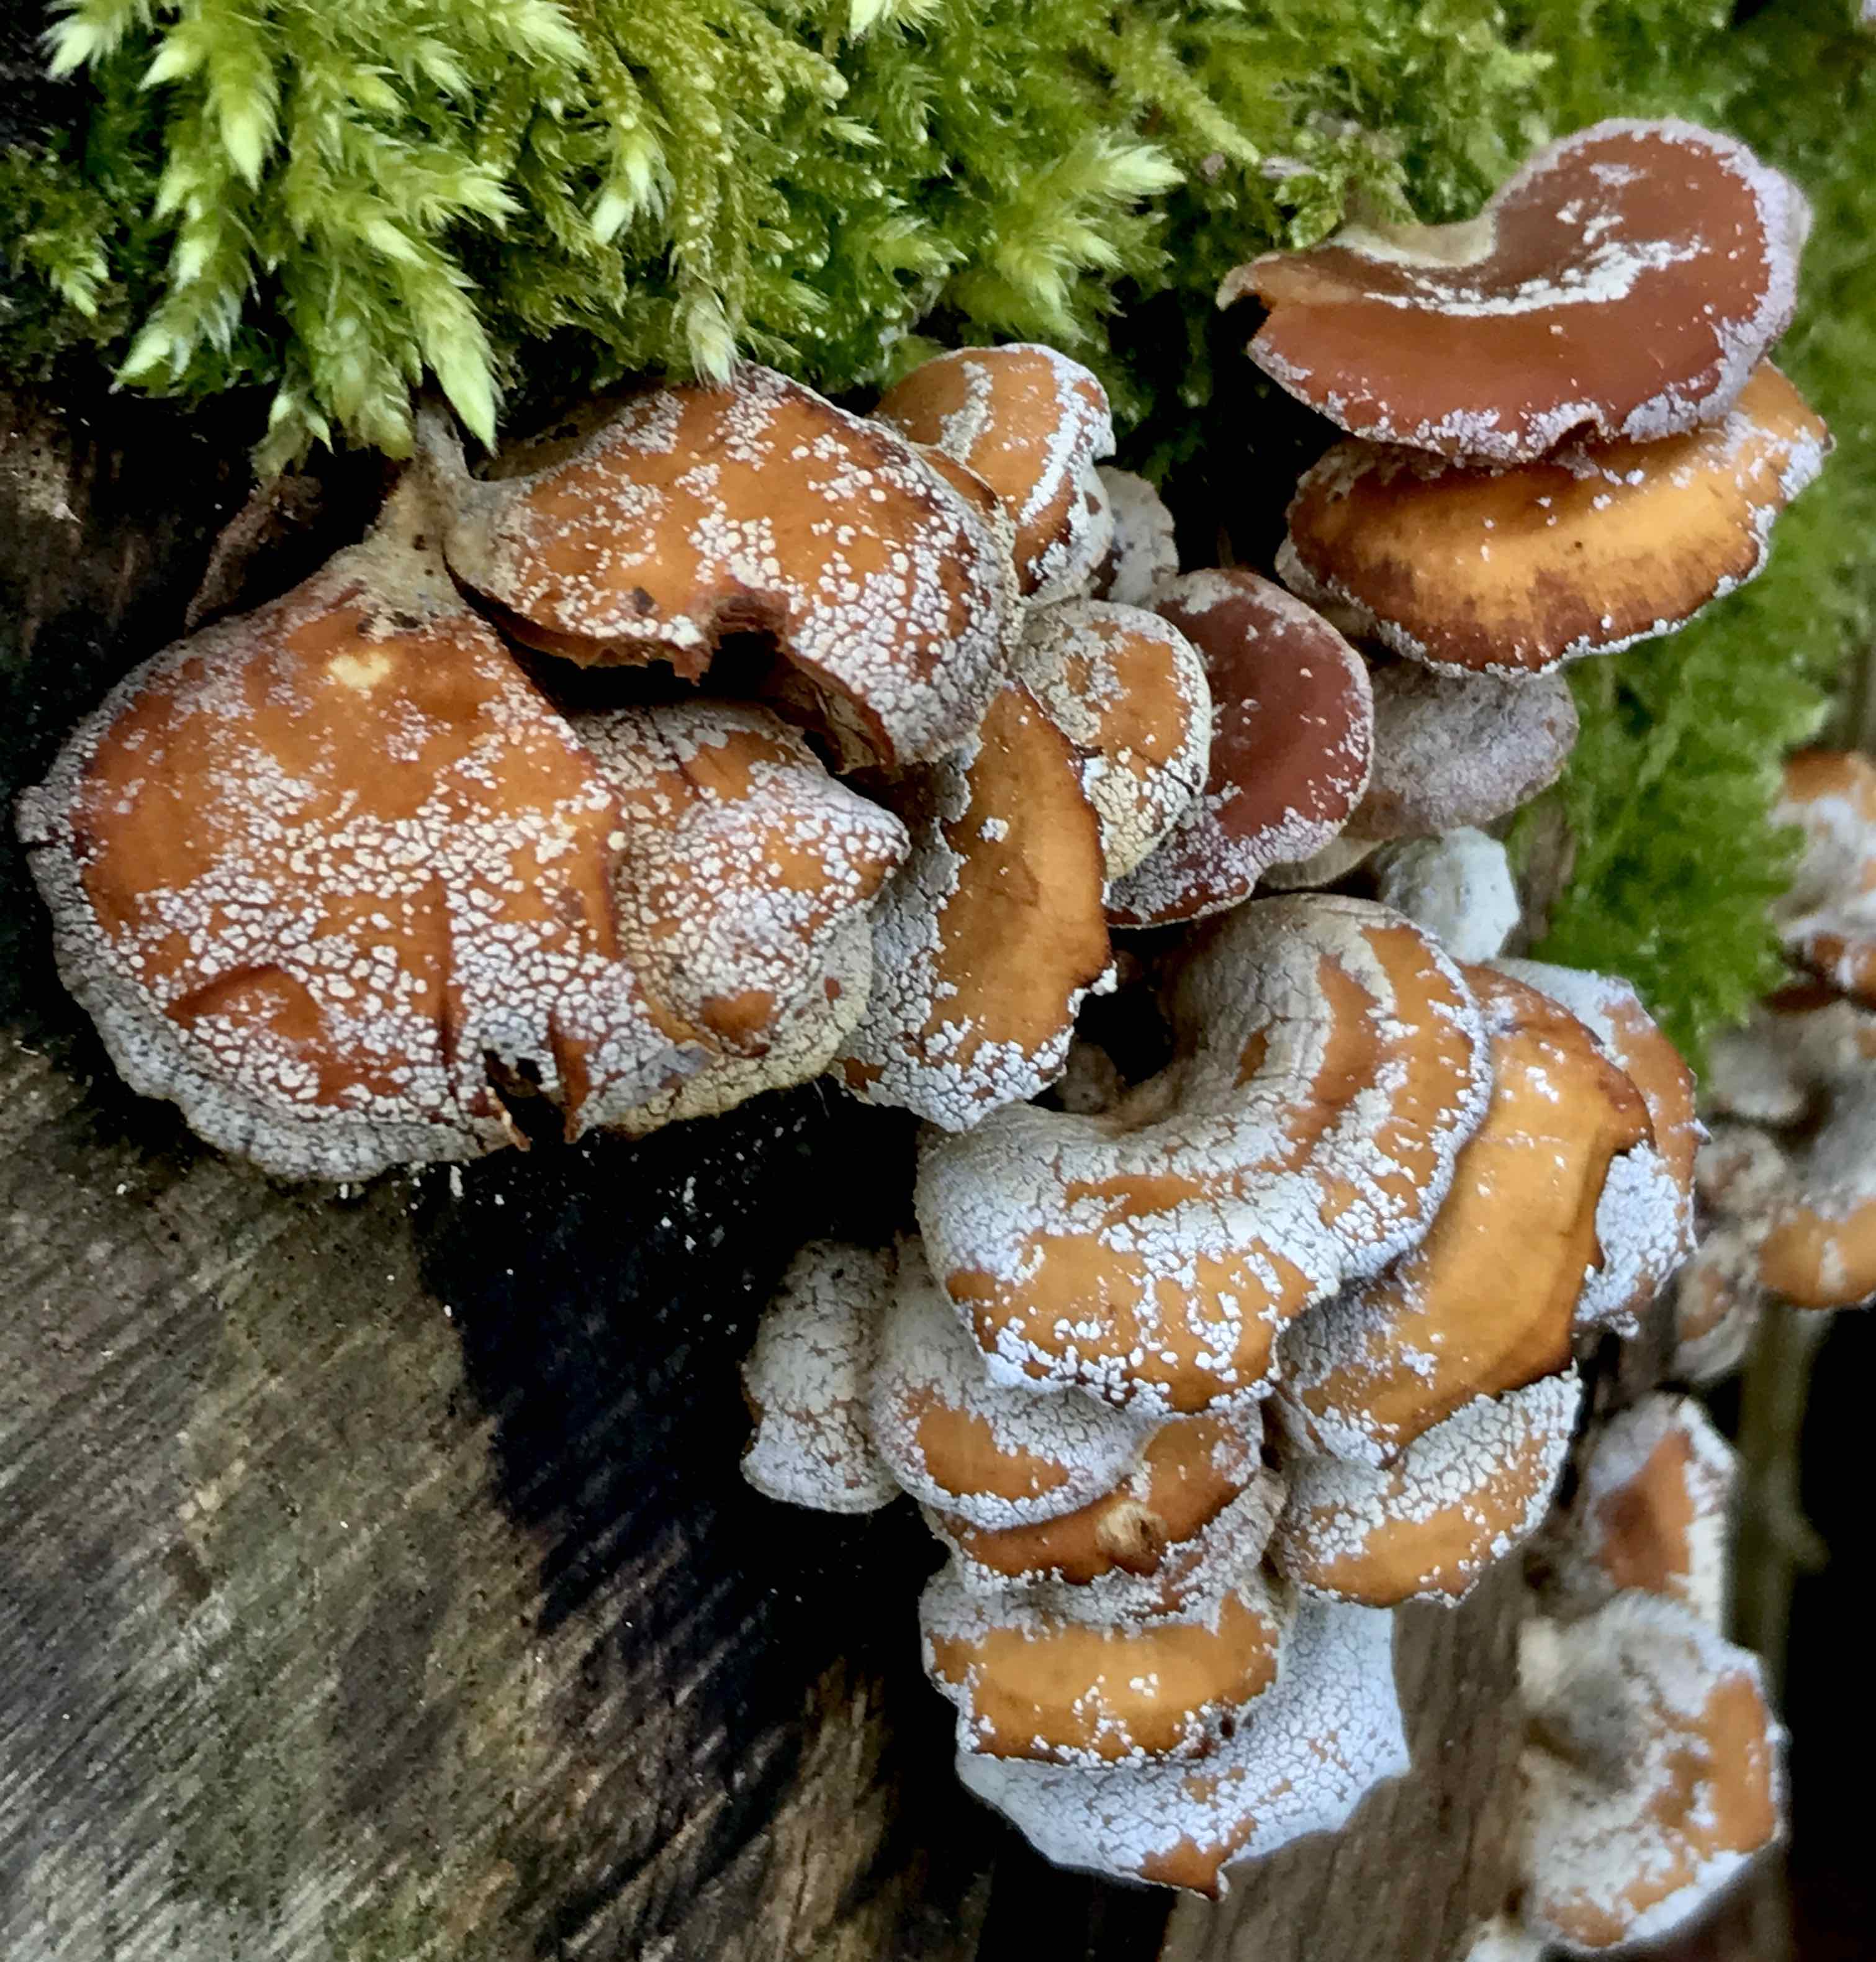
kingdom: Fungi
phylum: Basidiomycota
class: Agaricomycetes
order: Agaricales
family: Mycenaceae
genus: Panellus
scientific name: Panellus stipticus
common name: kliddet epaulethat
